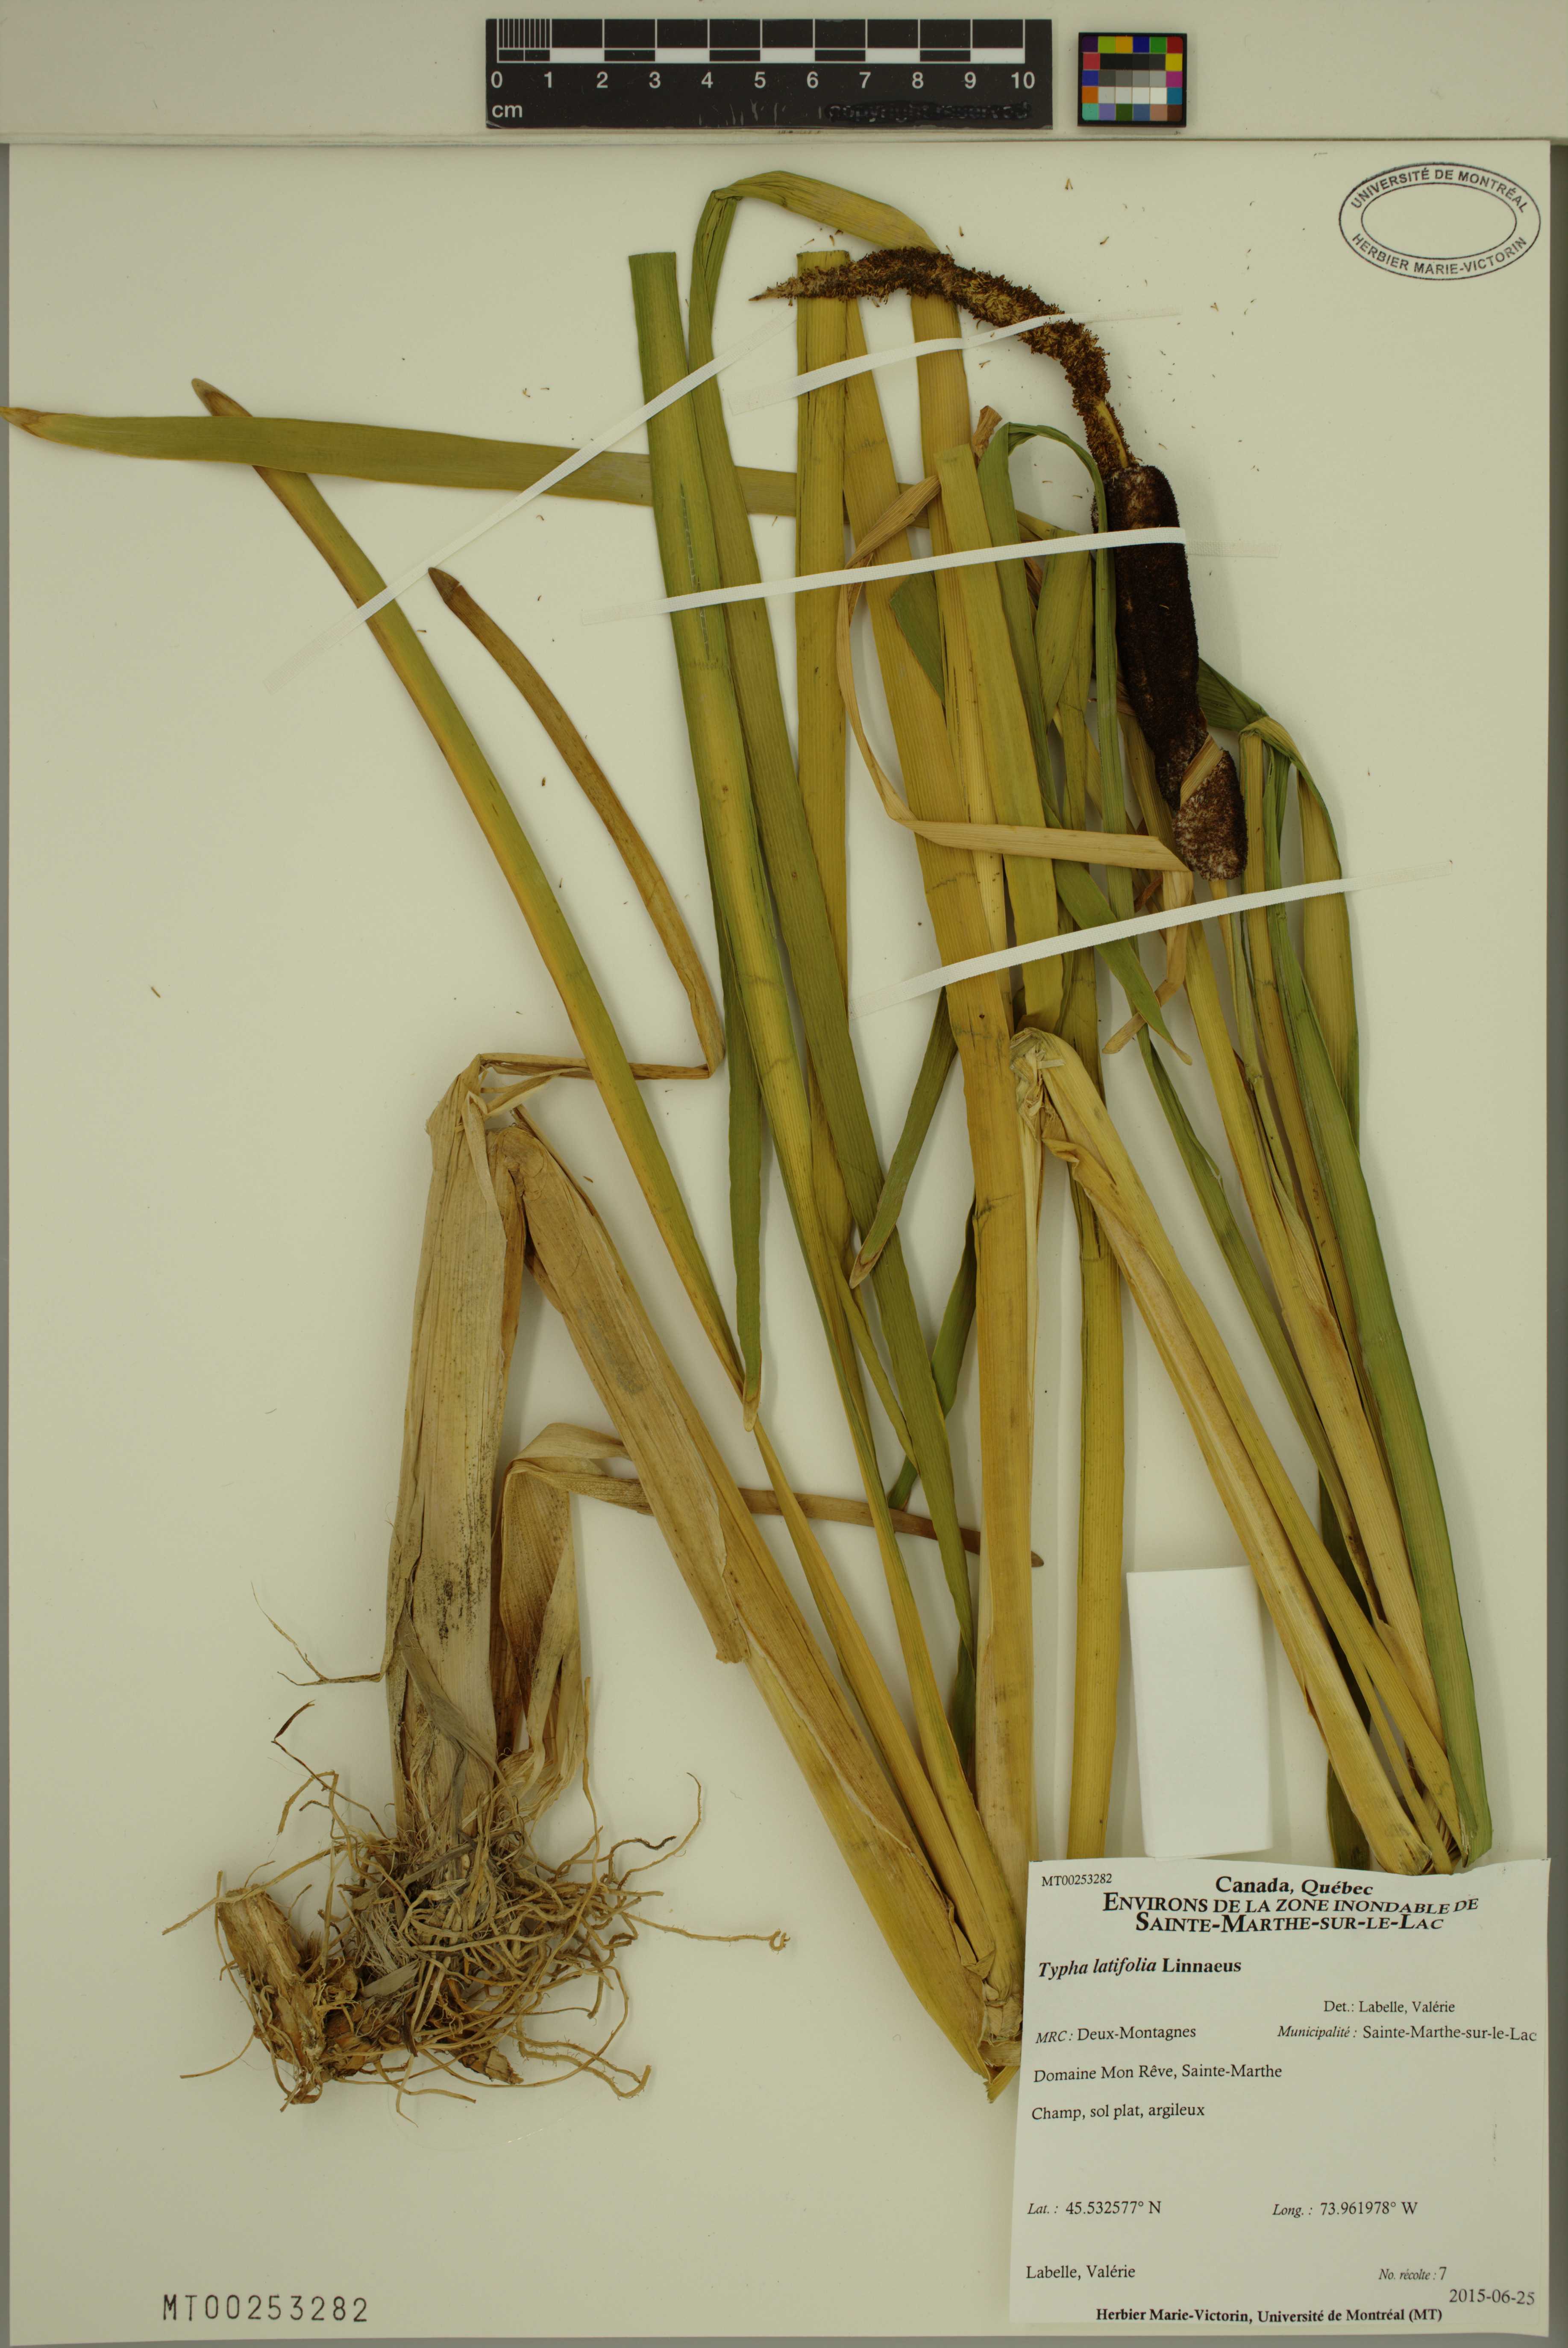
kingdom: Plantae
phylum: Tracheophyta
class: Liliopsida
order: Poales
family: Typhaceae
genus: Typha
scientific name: Typha latifolia
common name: Broadleaf cattail
